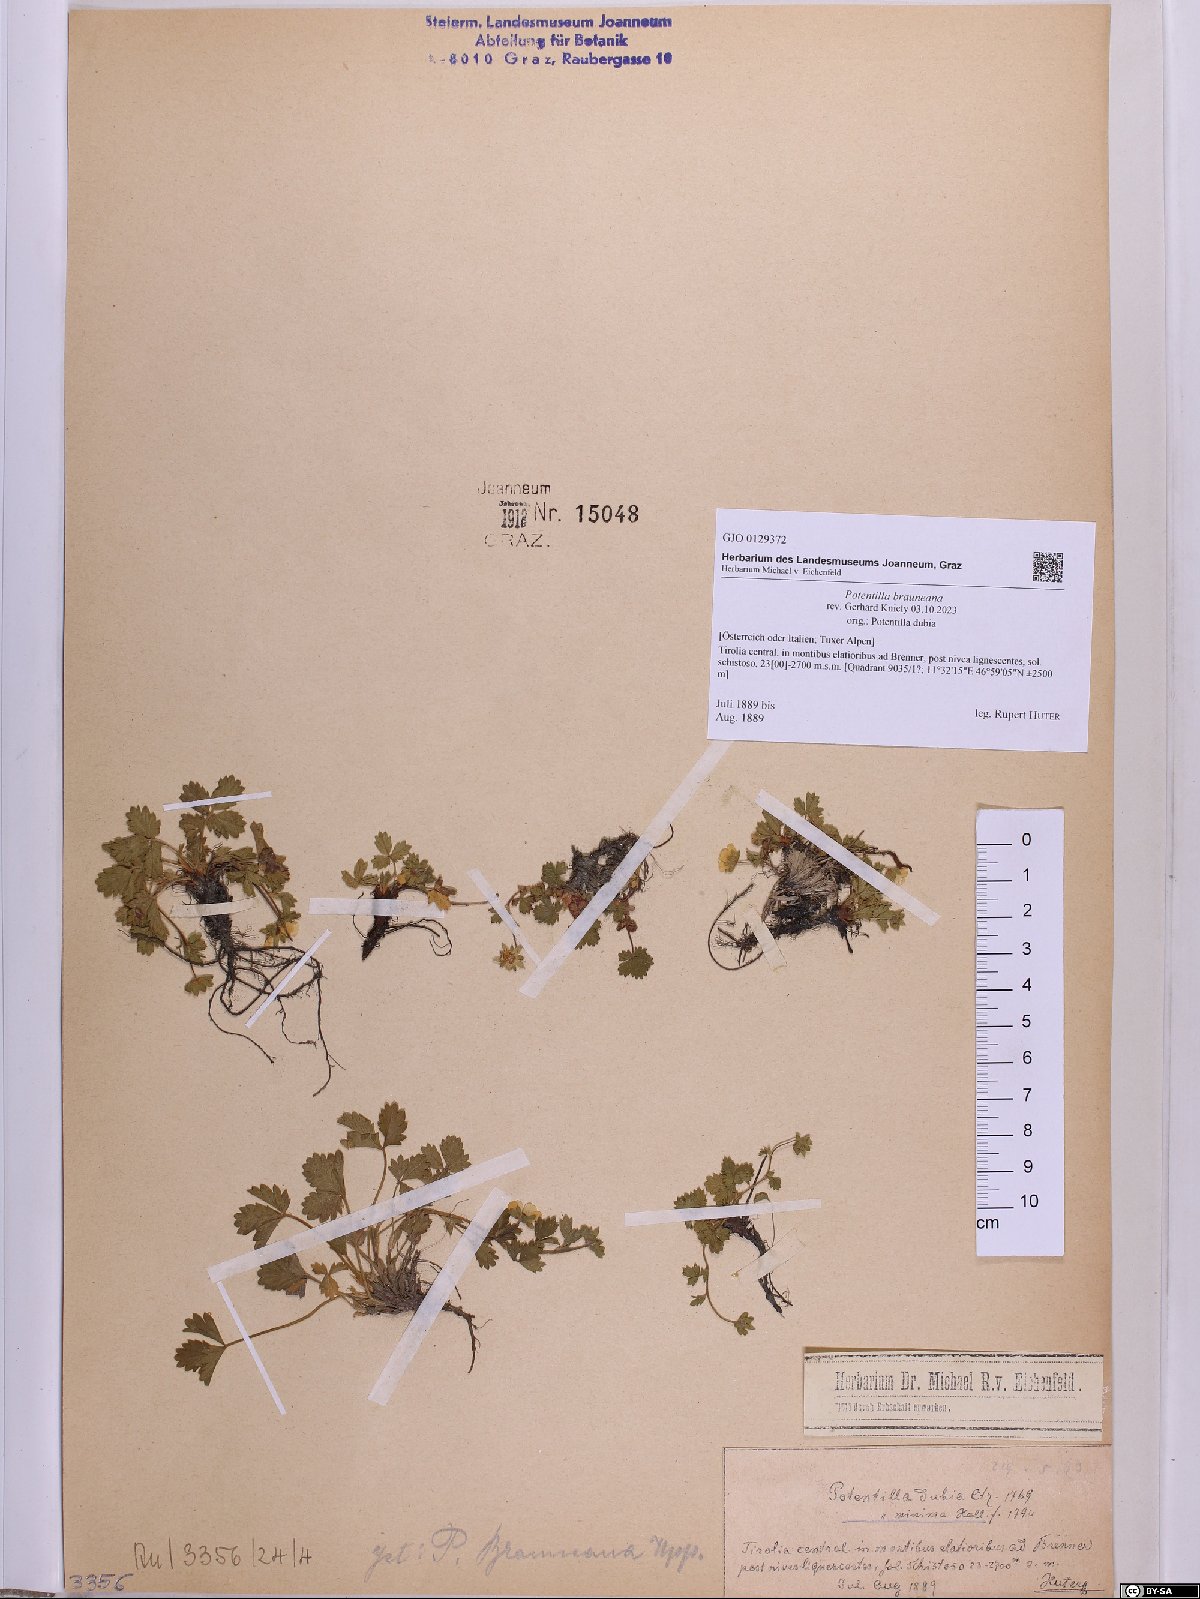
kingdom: Plantae
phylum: Tracheophyta
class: Magnoliopsida
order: Rosales
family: Rosaceae
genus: Potentilla
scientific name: Potentilla brauneana
